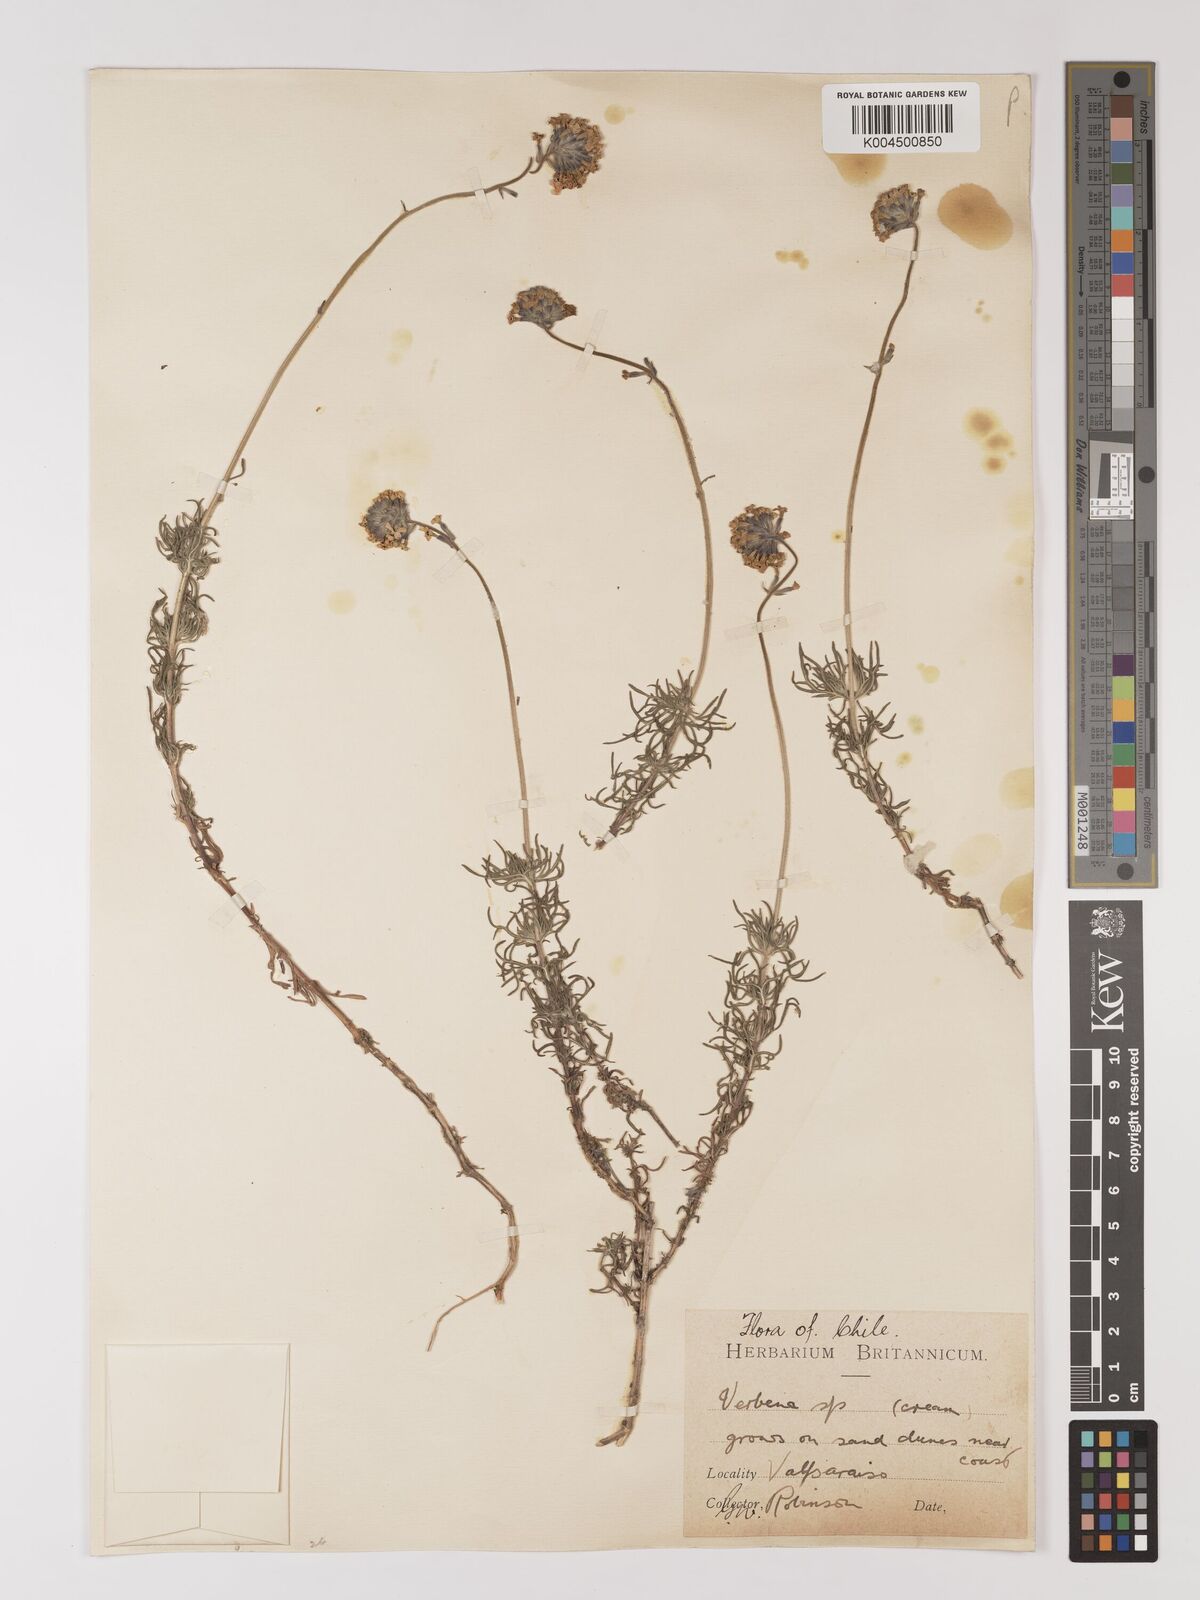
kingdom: Plantae
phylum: Tracheophyta
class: Magnoliopsida
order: Lamiales
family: Verbenaceae
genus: Verbena
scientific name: Verbena
